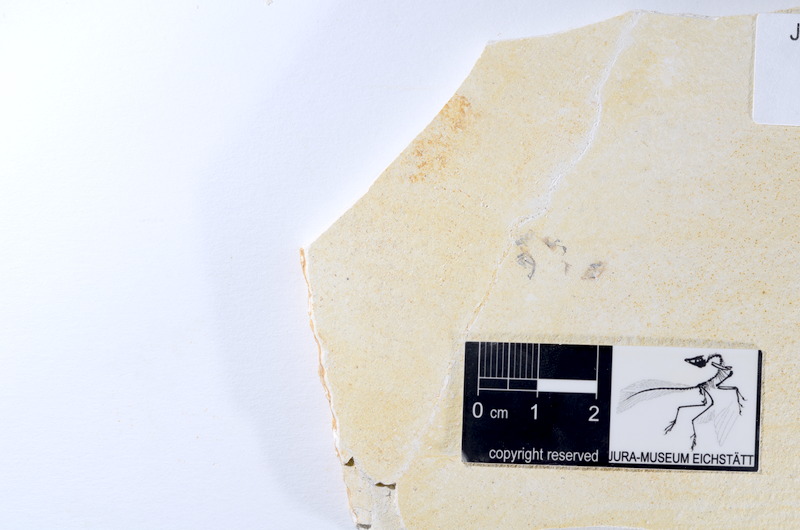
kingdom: Animalia
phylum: Chordata
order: Salmoniformes
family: Orthogonikleithridae
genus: Orthogonikleithrus
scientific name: Orthogonikleithrus hoelli
